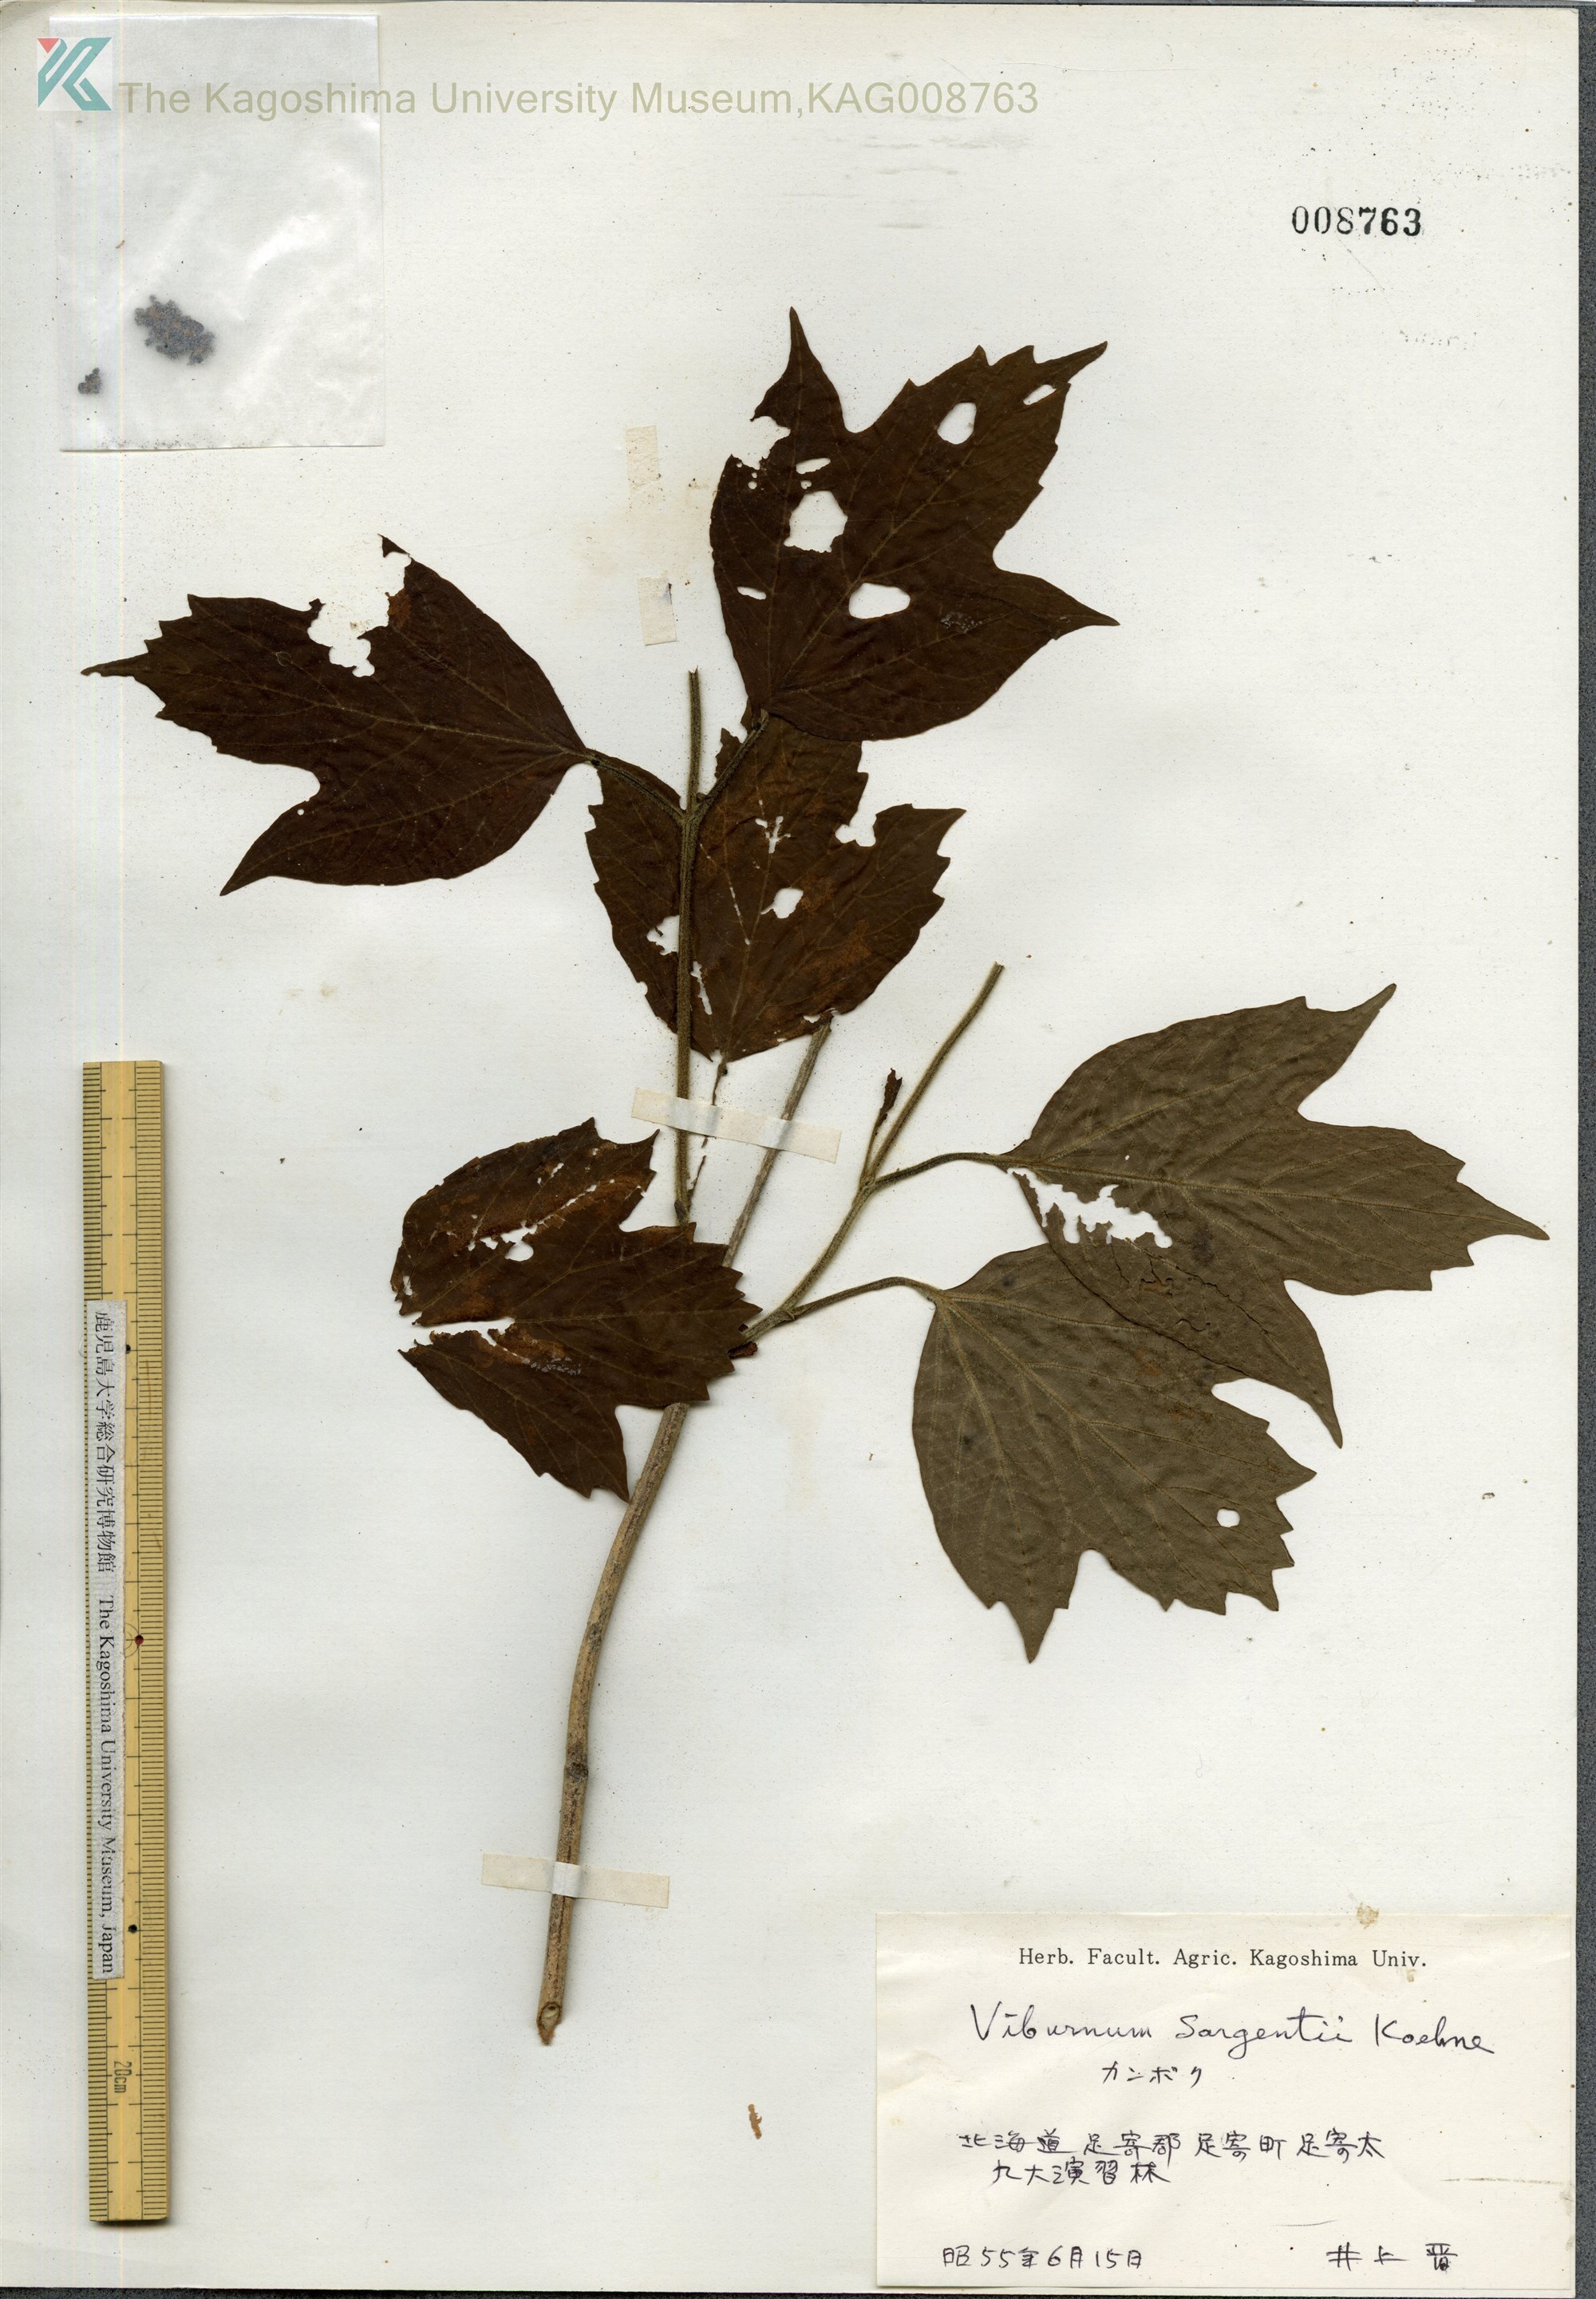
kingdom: Plantae
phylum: Tracheophyta
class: Magnoliopsida
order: Dipsacales
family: Viburnaceae
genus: Viburnum
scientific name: Viburnum opulus
